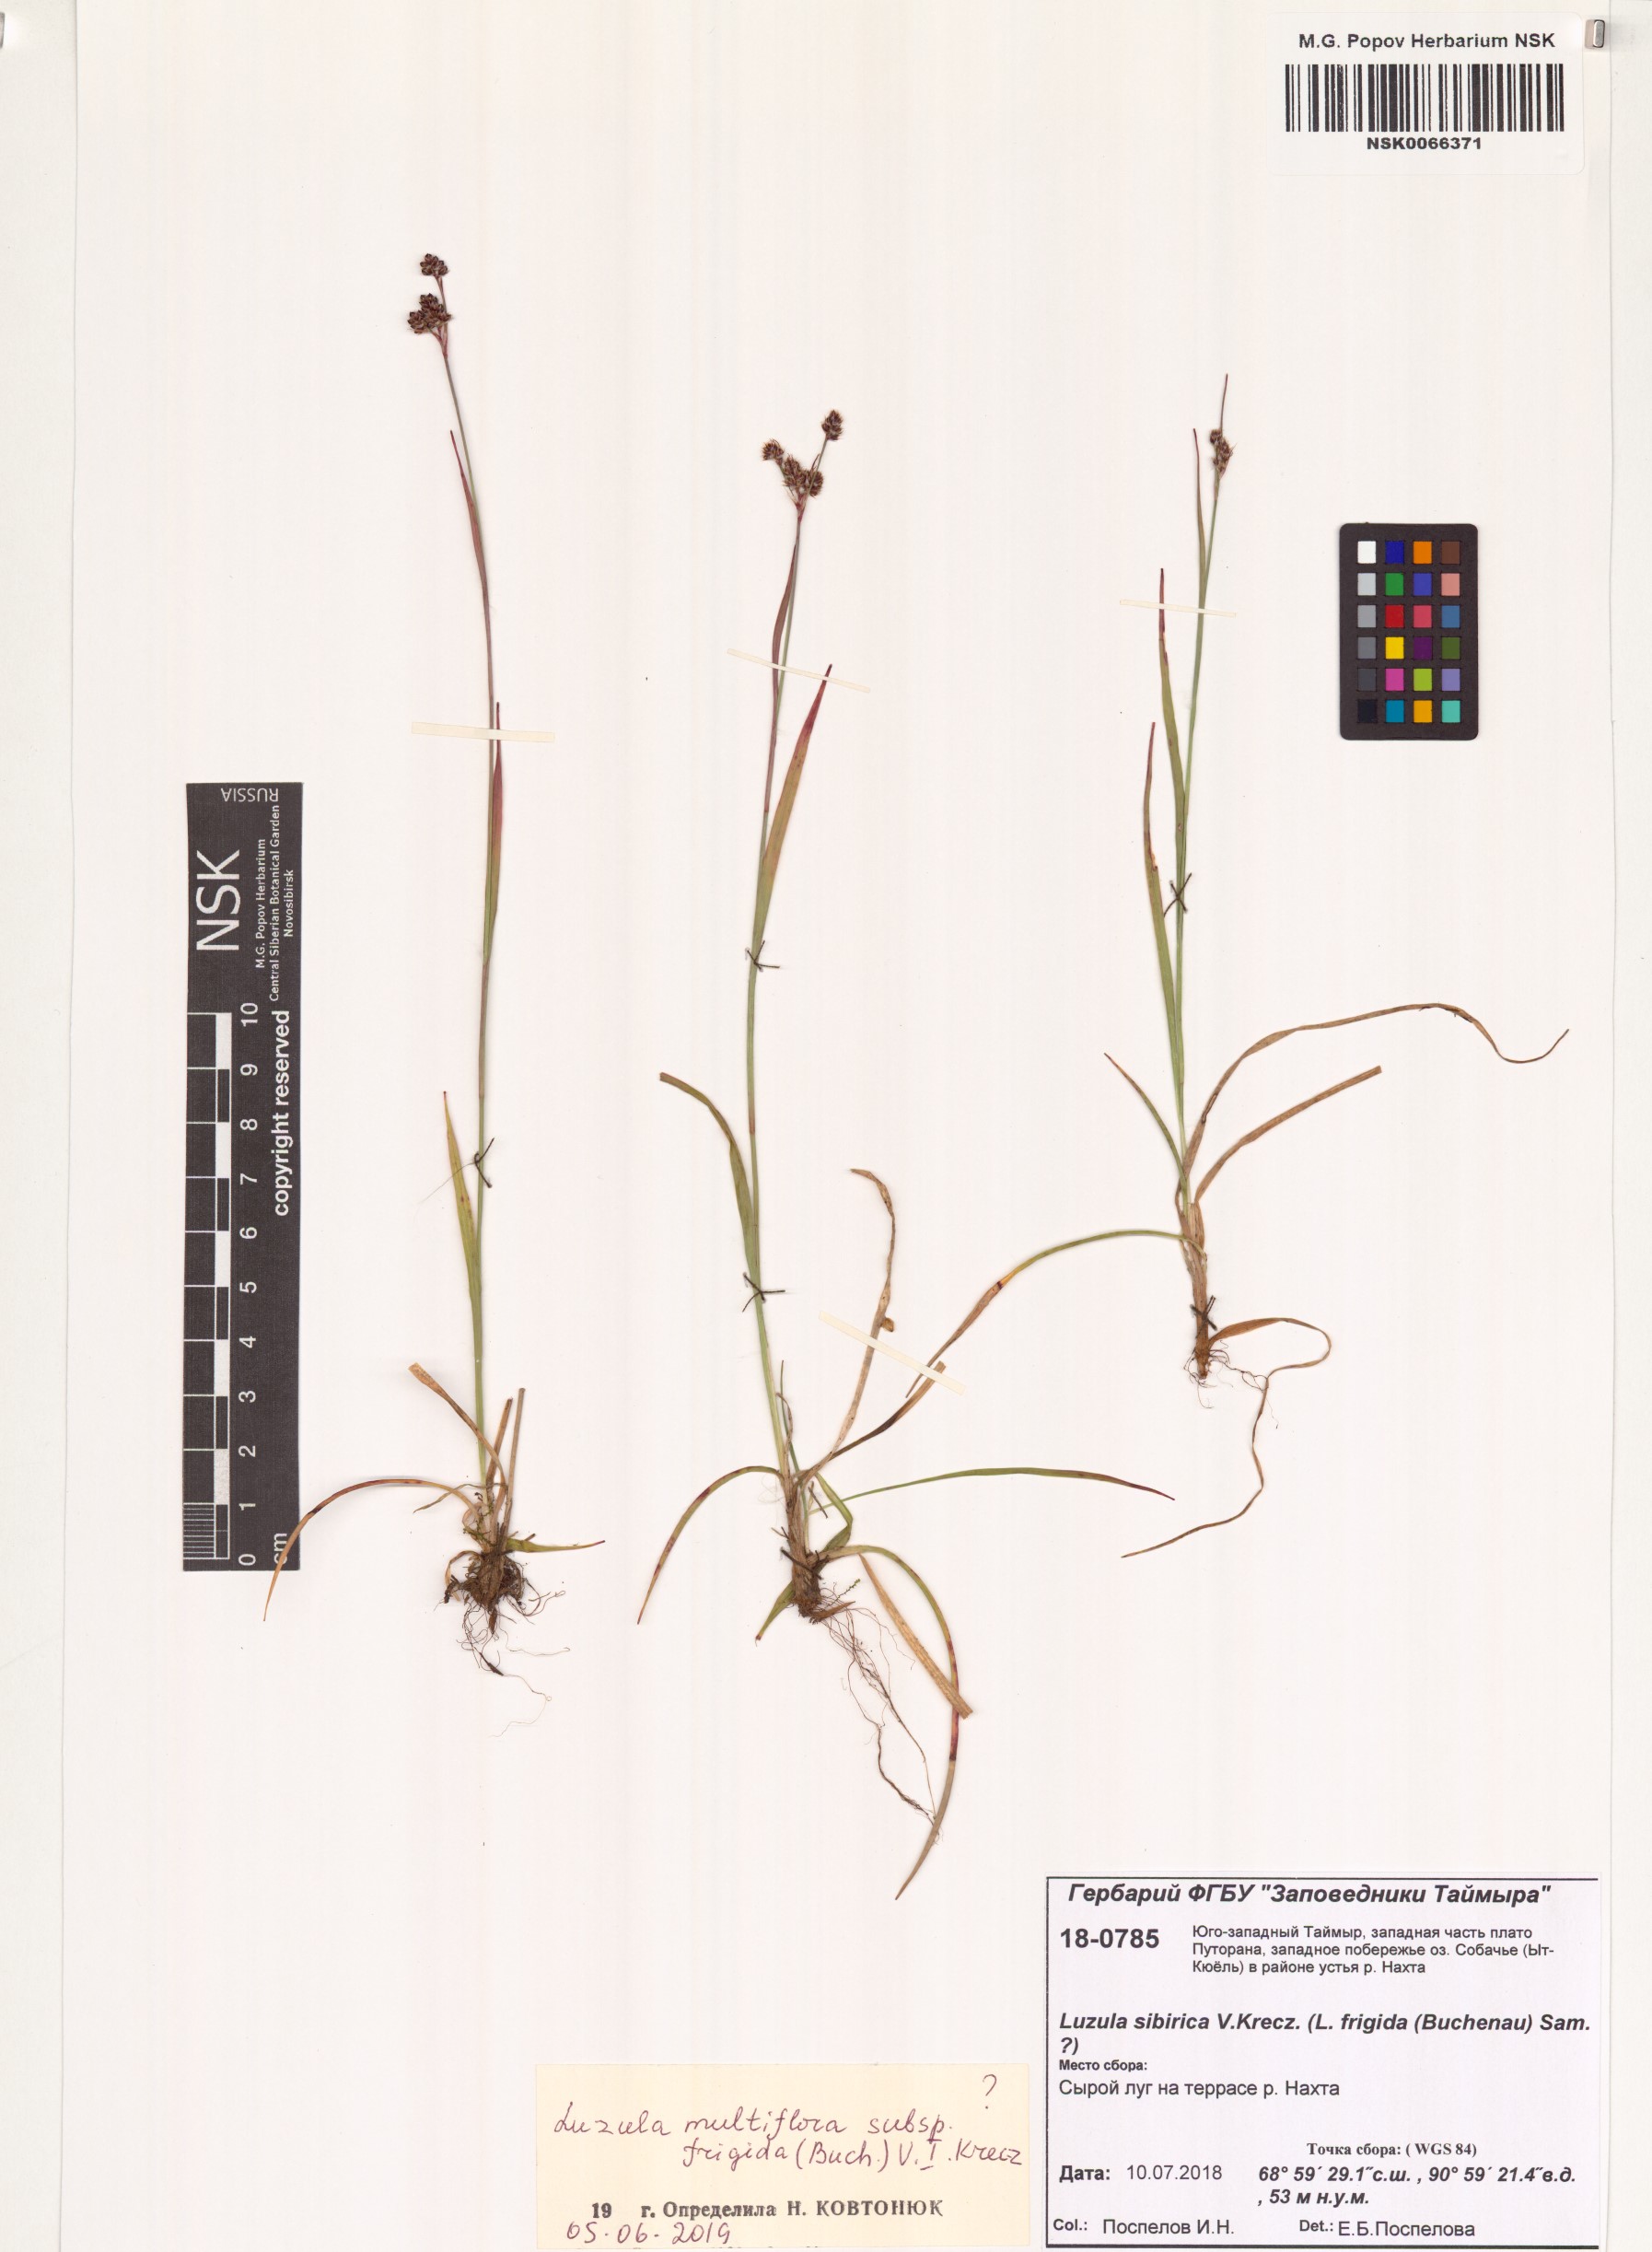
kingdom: Plantae
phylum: Tracheophyta
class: Liliopsida
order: Poales
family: Juncaceae
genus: Luzula
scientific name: Luzula multiflora
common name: Heath wood-rush
